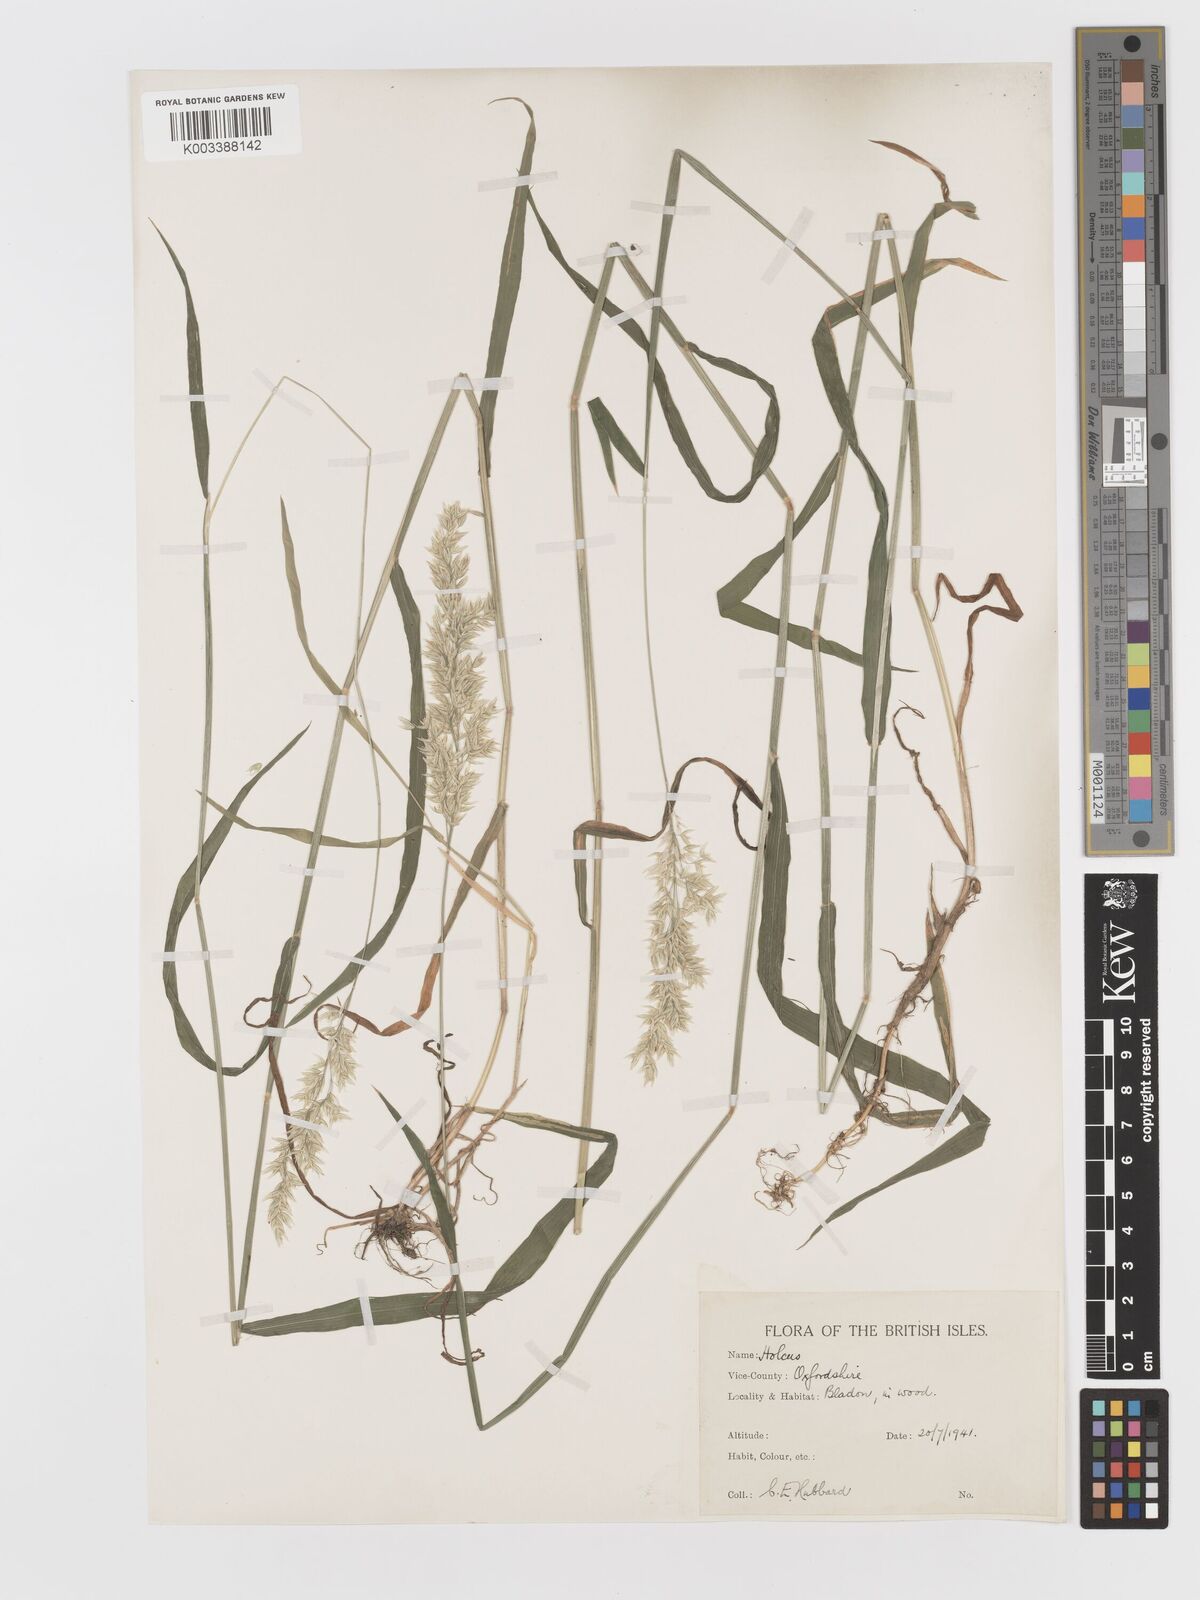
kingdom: Plantae
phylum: Tracheophyta
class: Liliopsida
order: Poales
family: Poaceae
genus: Holcus
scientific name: Holcus mollis
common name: Creeping velvetgrass
